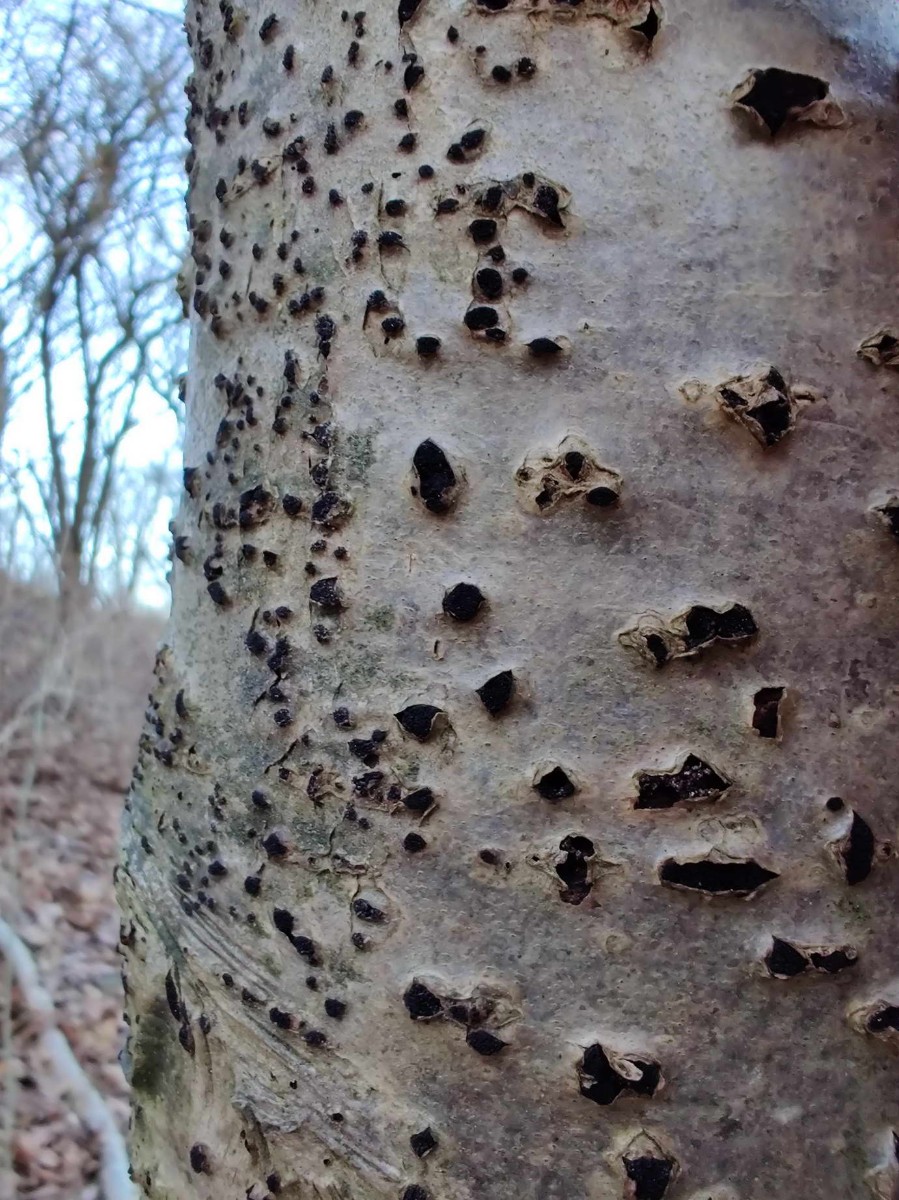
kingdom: Fungi
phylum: Ascomycota
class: Sordariomycetes
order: Xylariales
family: Diatrypaceae
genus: Eutypella
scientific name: Eutypella sorbi
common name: rønne-kulskorpe
